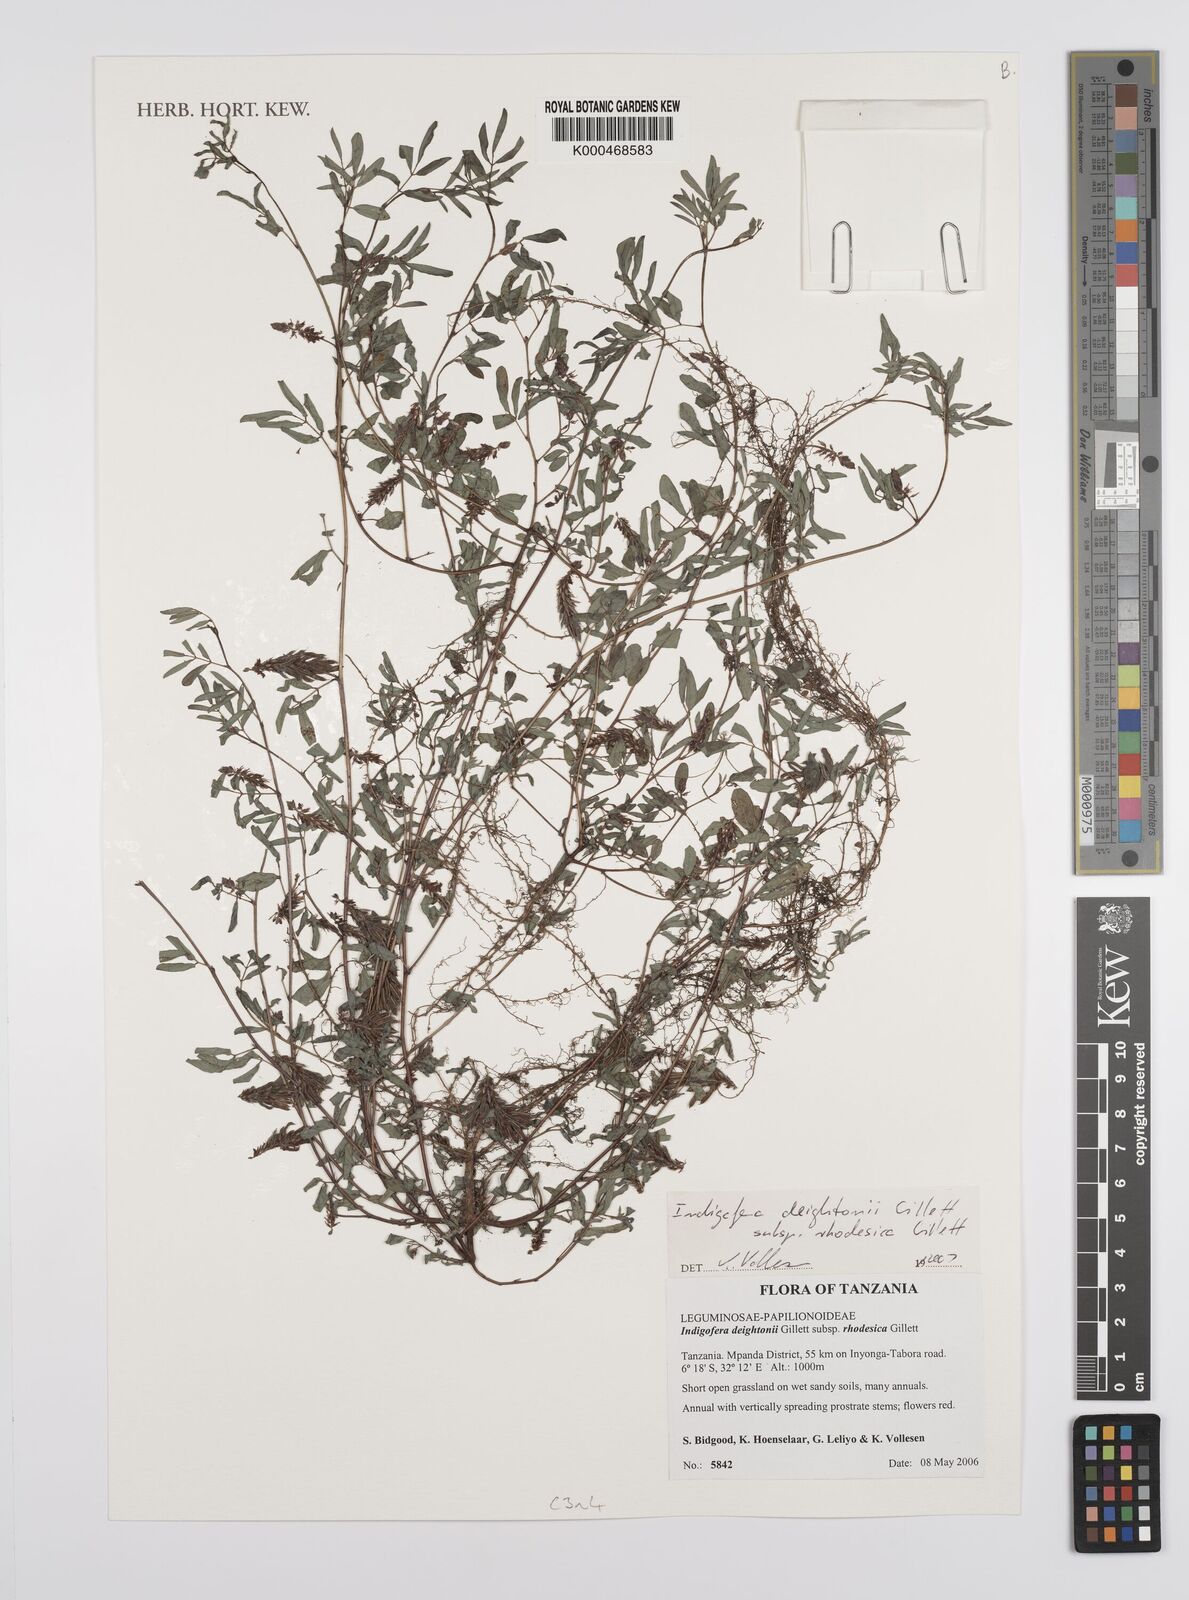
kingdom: Plantae
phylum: Tracheophyta
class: Magnoliopsida
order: Fabales
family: Fabaceae
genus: Indigofera
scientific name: Indigofera deightonii
